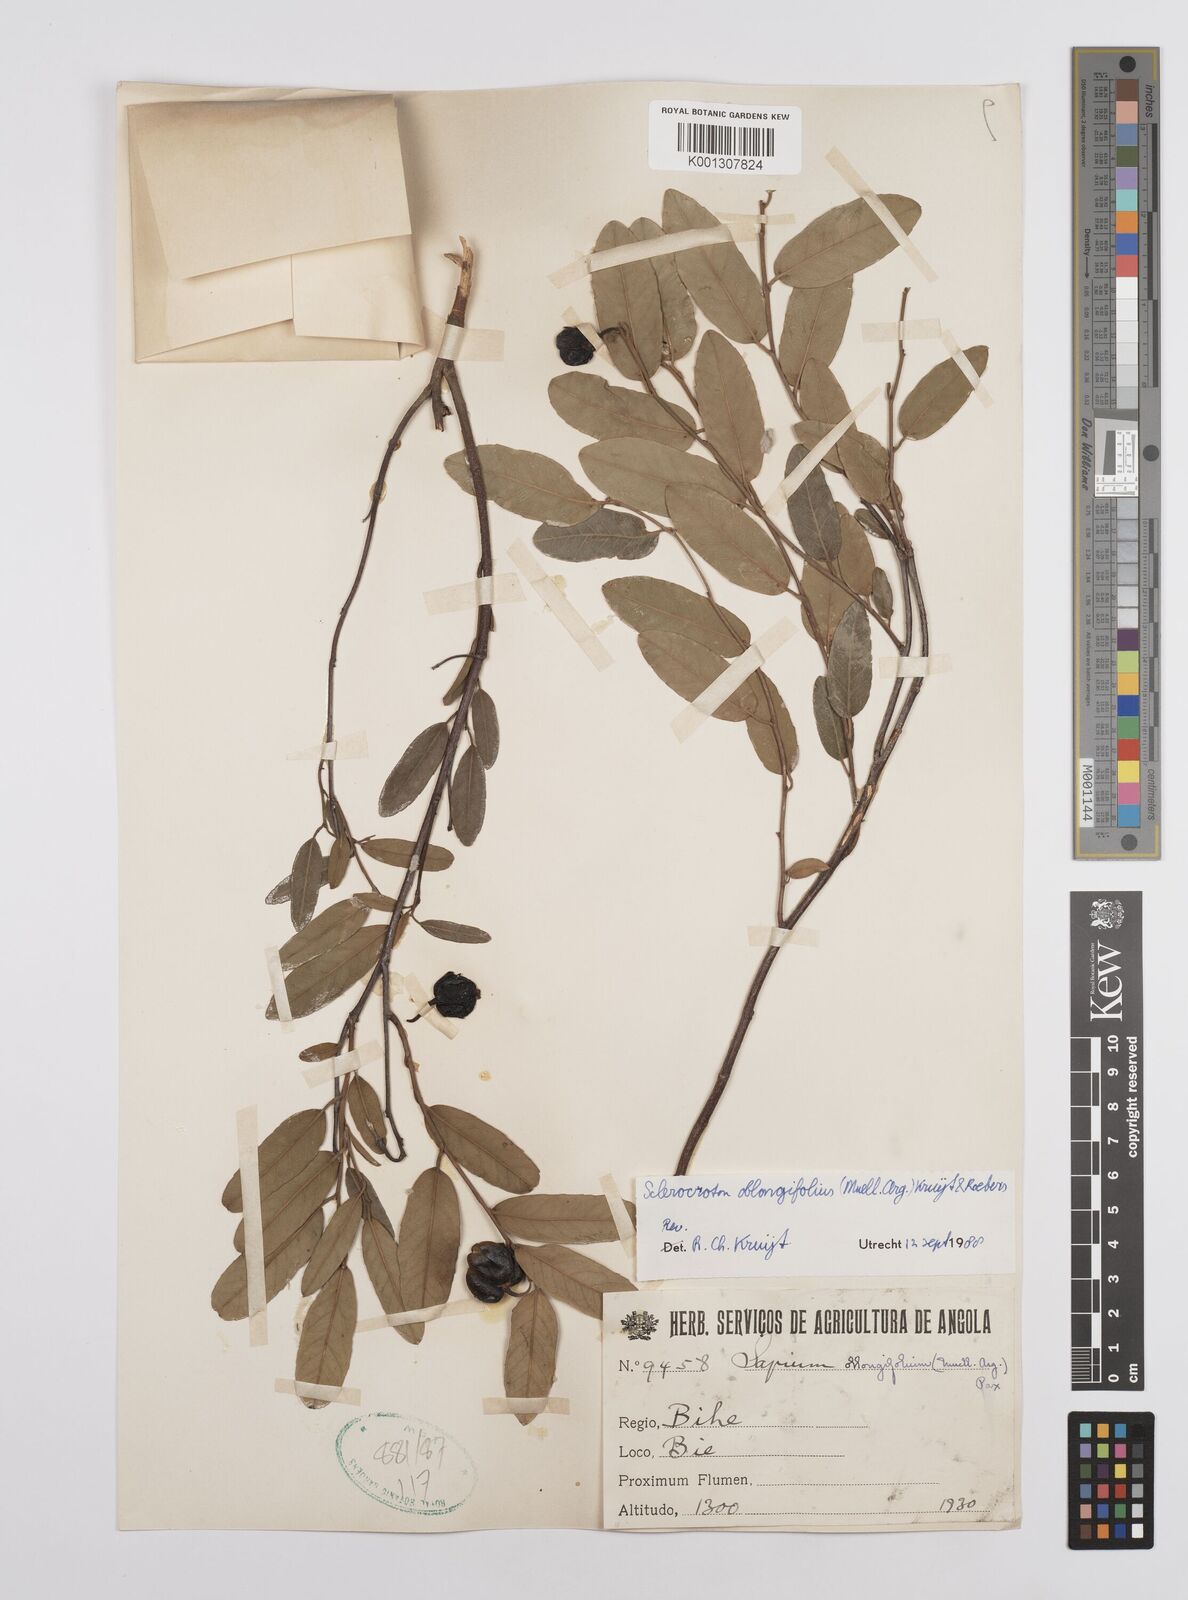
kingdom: Plantae
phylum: Tracheophyta
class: Magnoliopsida
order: Malpighiales
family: Euphorbiaceae
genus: Sclerocroton
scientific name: Sclerocroton
